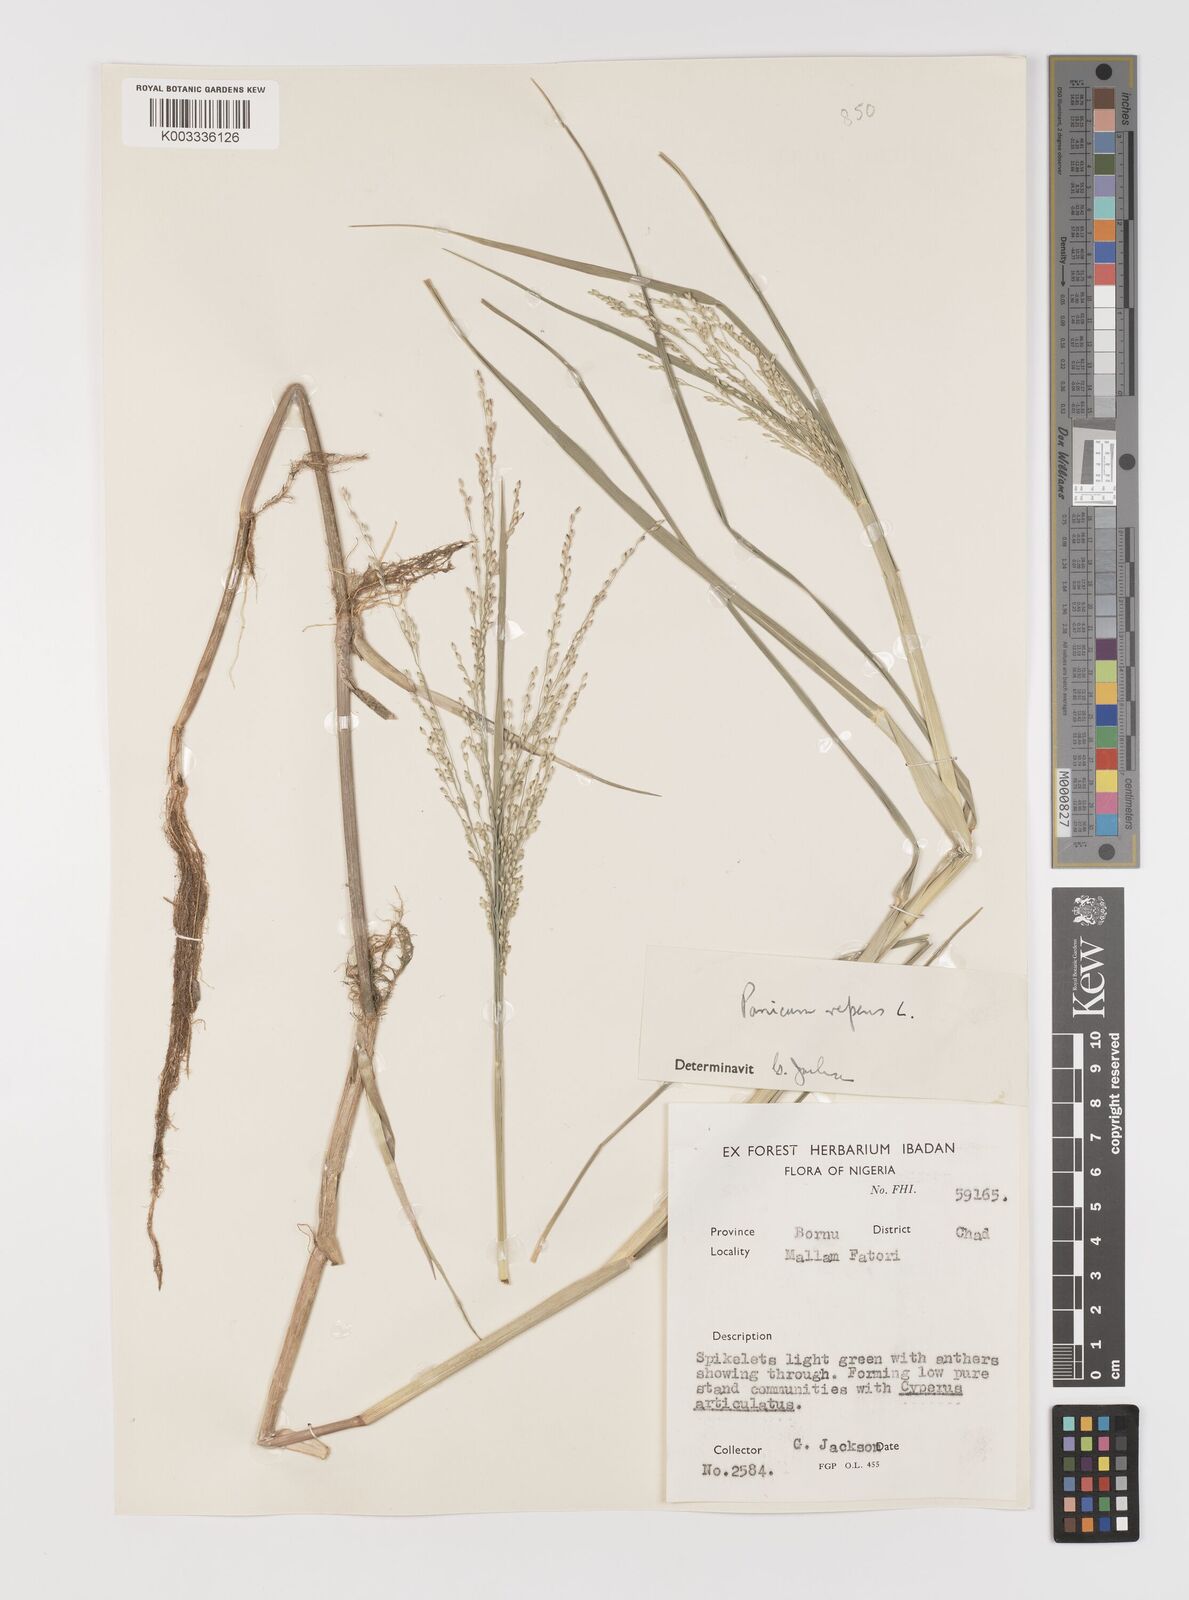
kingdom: Plantae
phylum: Tracheophyta
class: Liliopsida
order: Poales
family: Poaceae
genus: Panicum
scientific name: Panicum repens
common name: Torpedo grass
